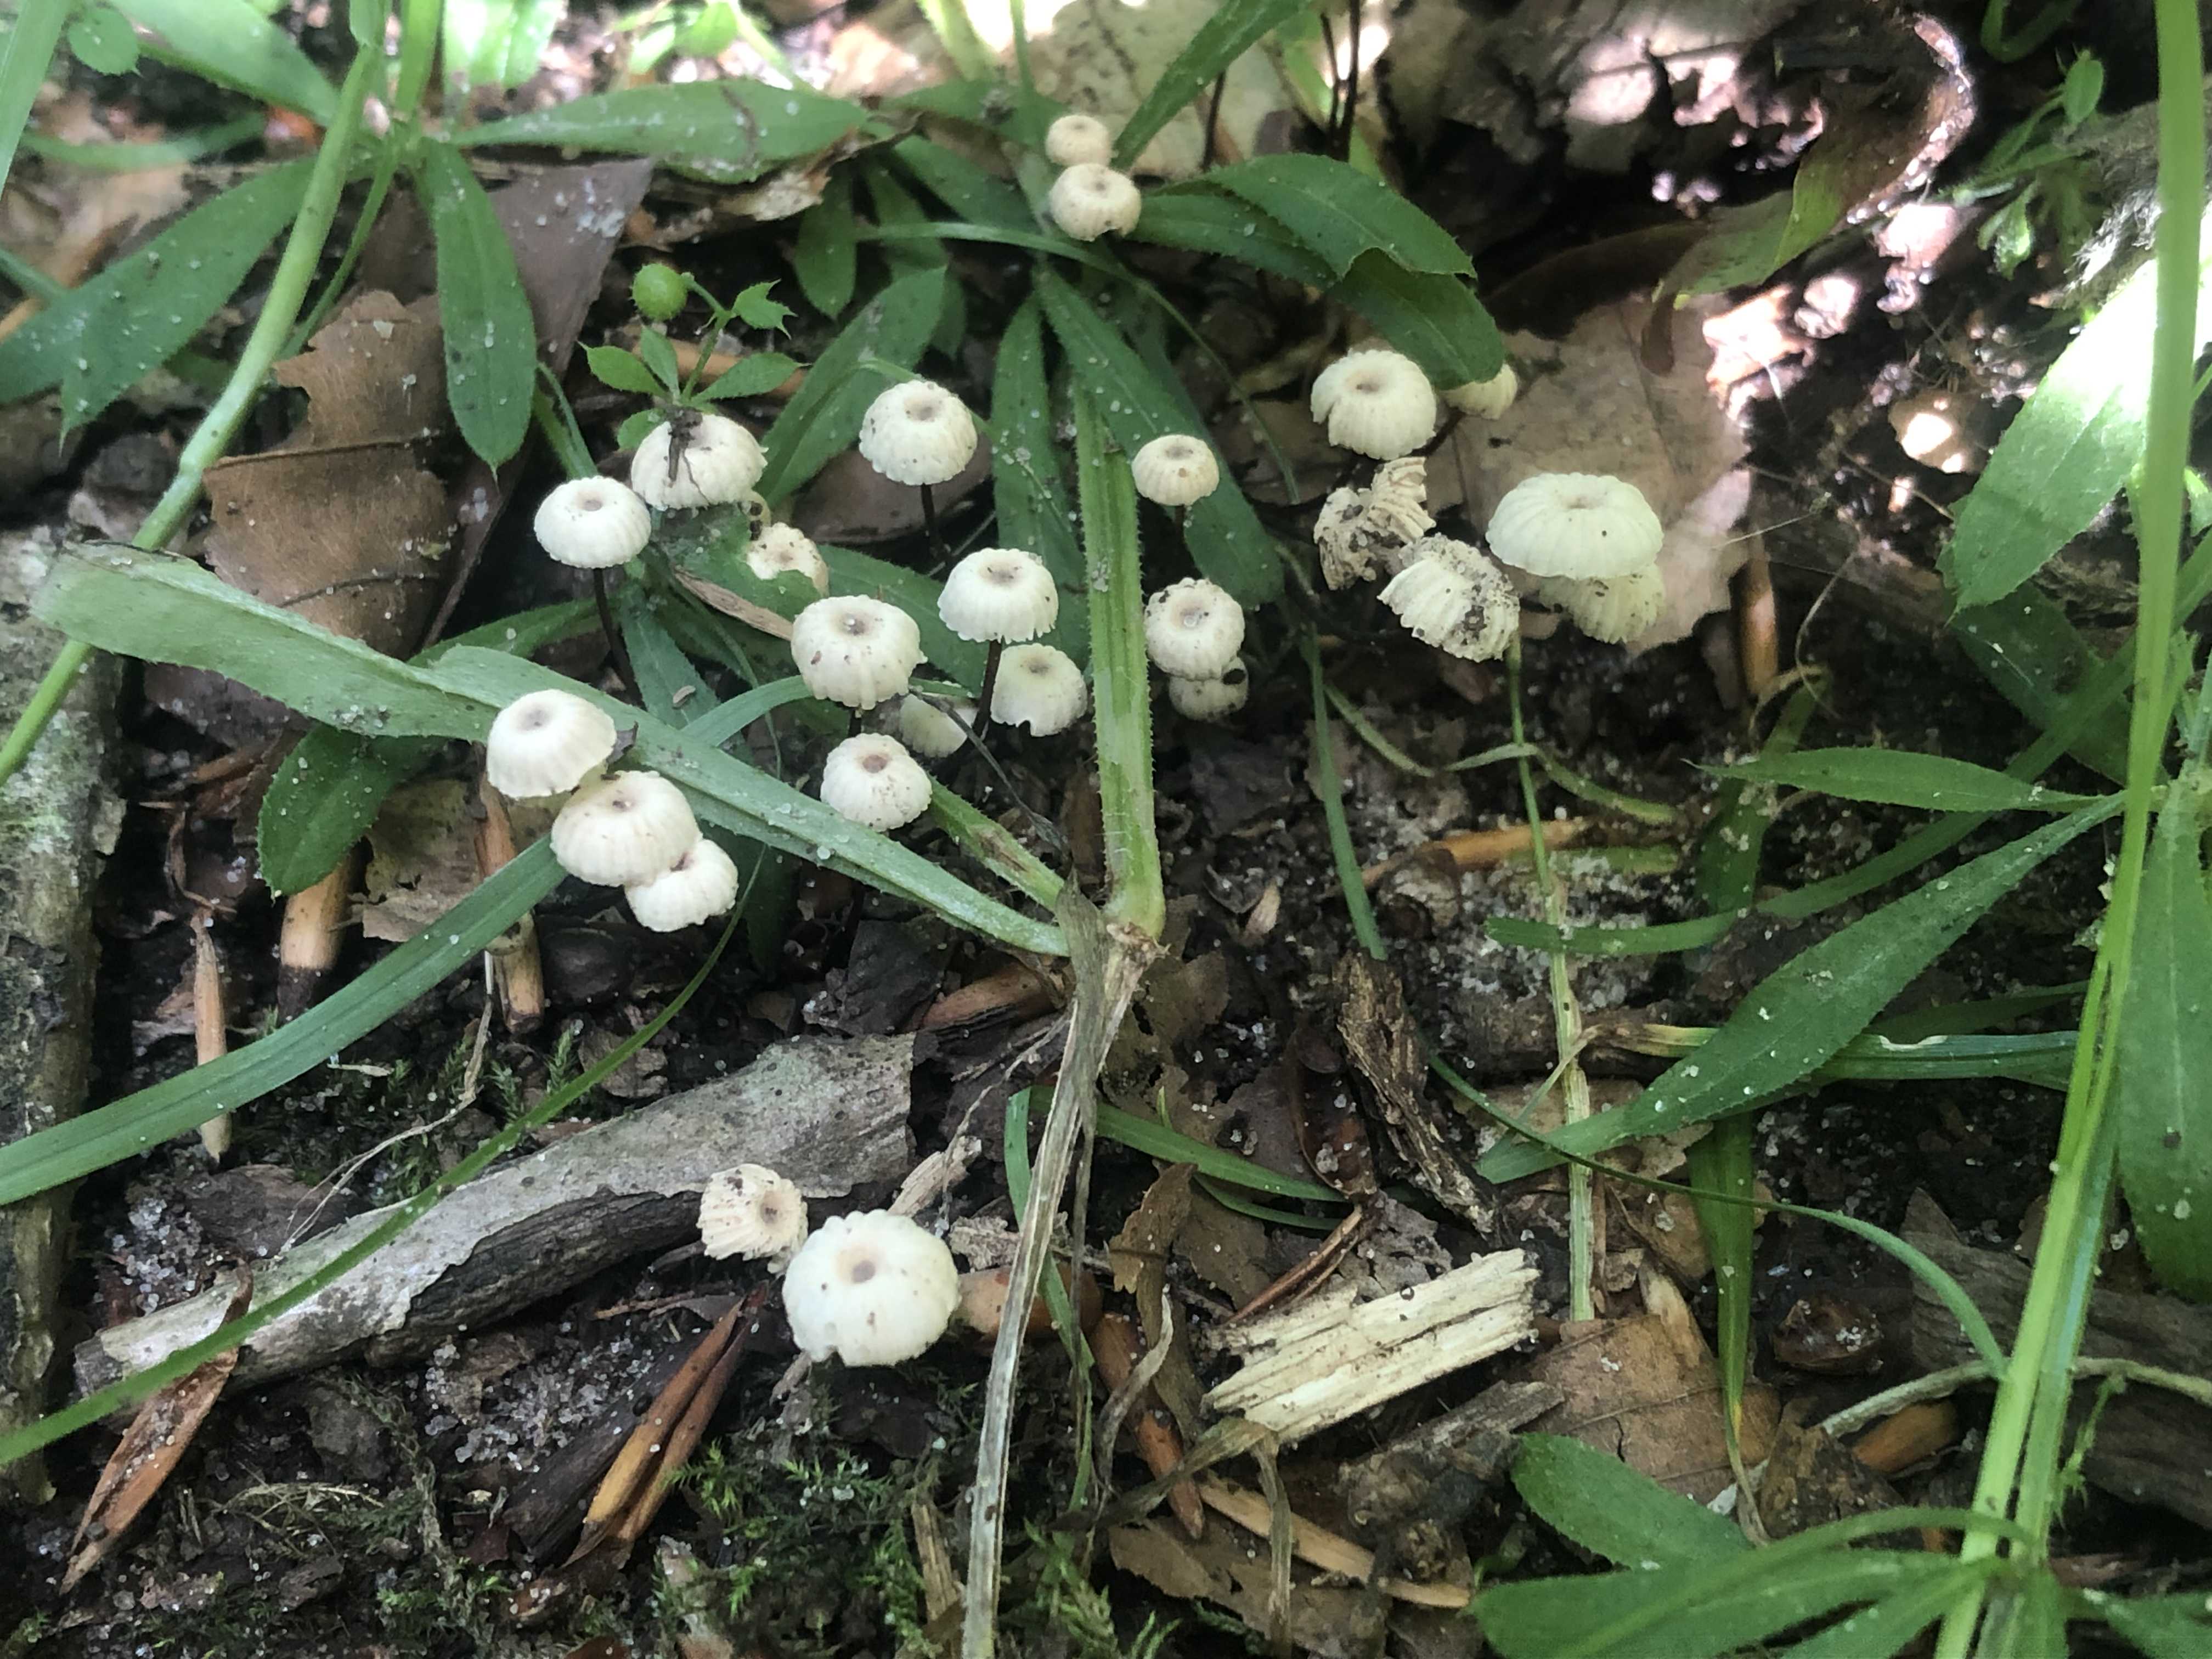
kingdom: Fungi
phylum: Basidiomycota
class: Agaricomycetes
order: Agaricales
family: Marasmiaceae
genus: Marasmius
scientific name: Marasmius rotula
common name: hjul-bruskhat
